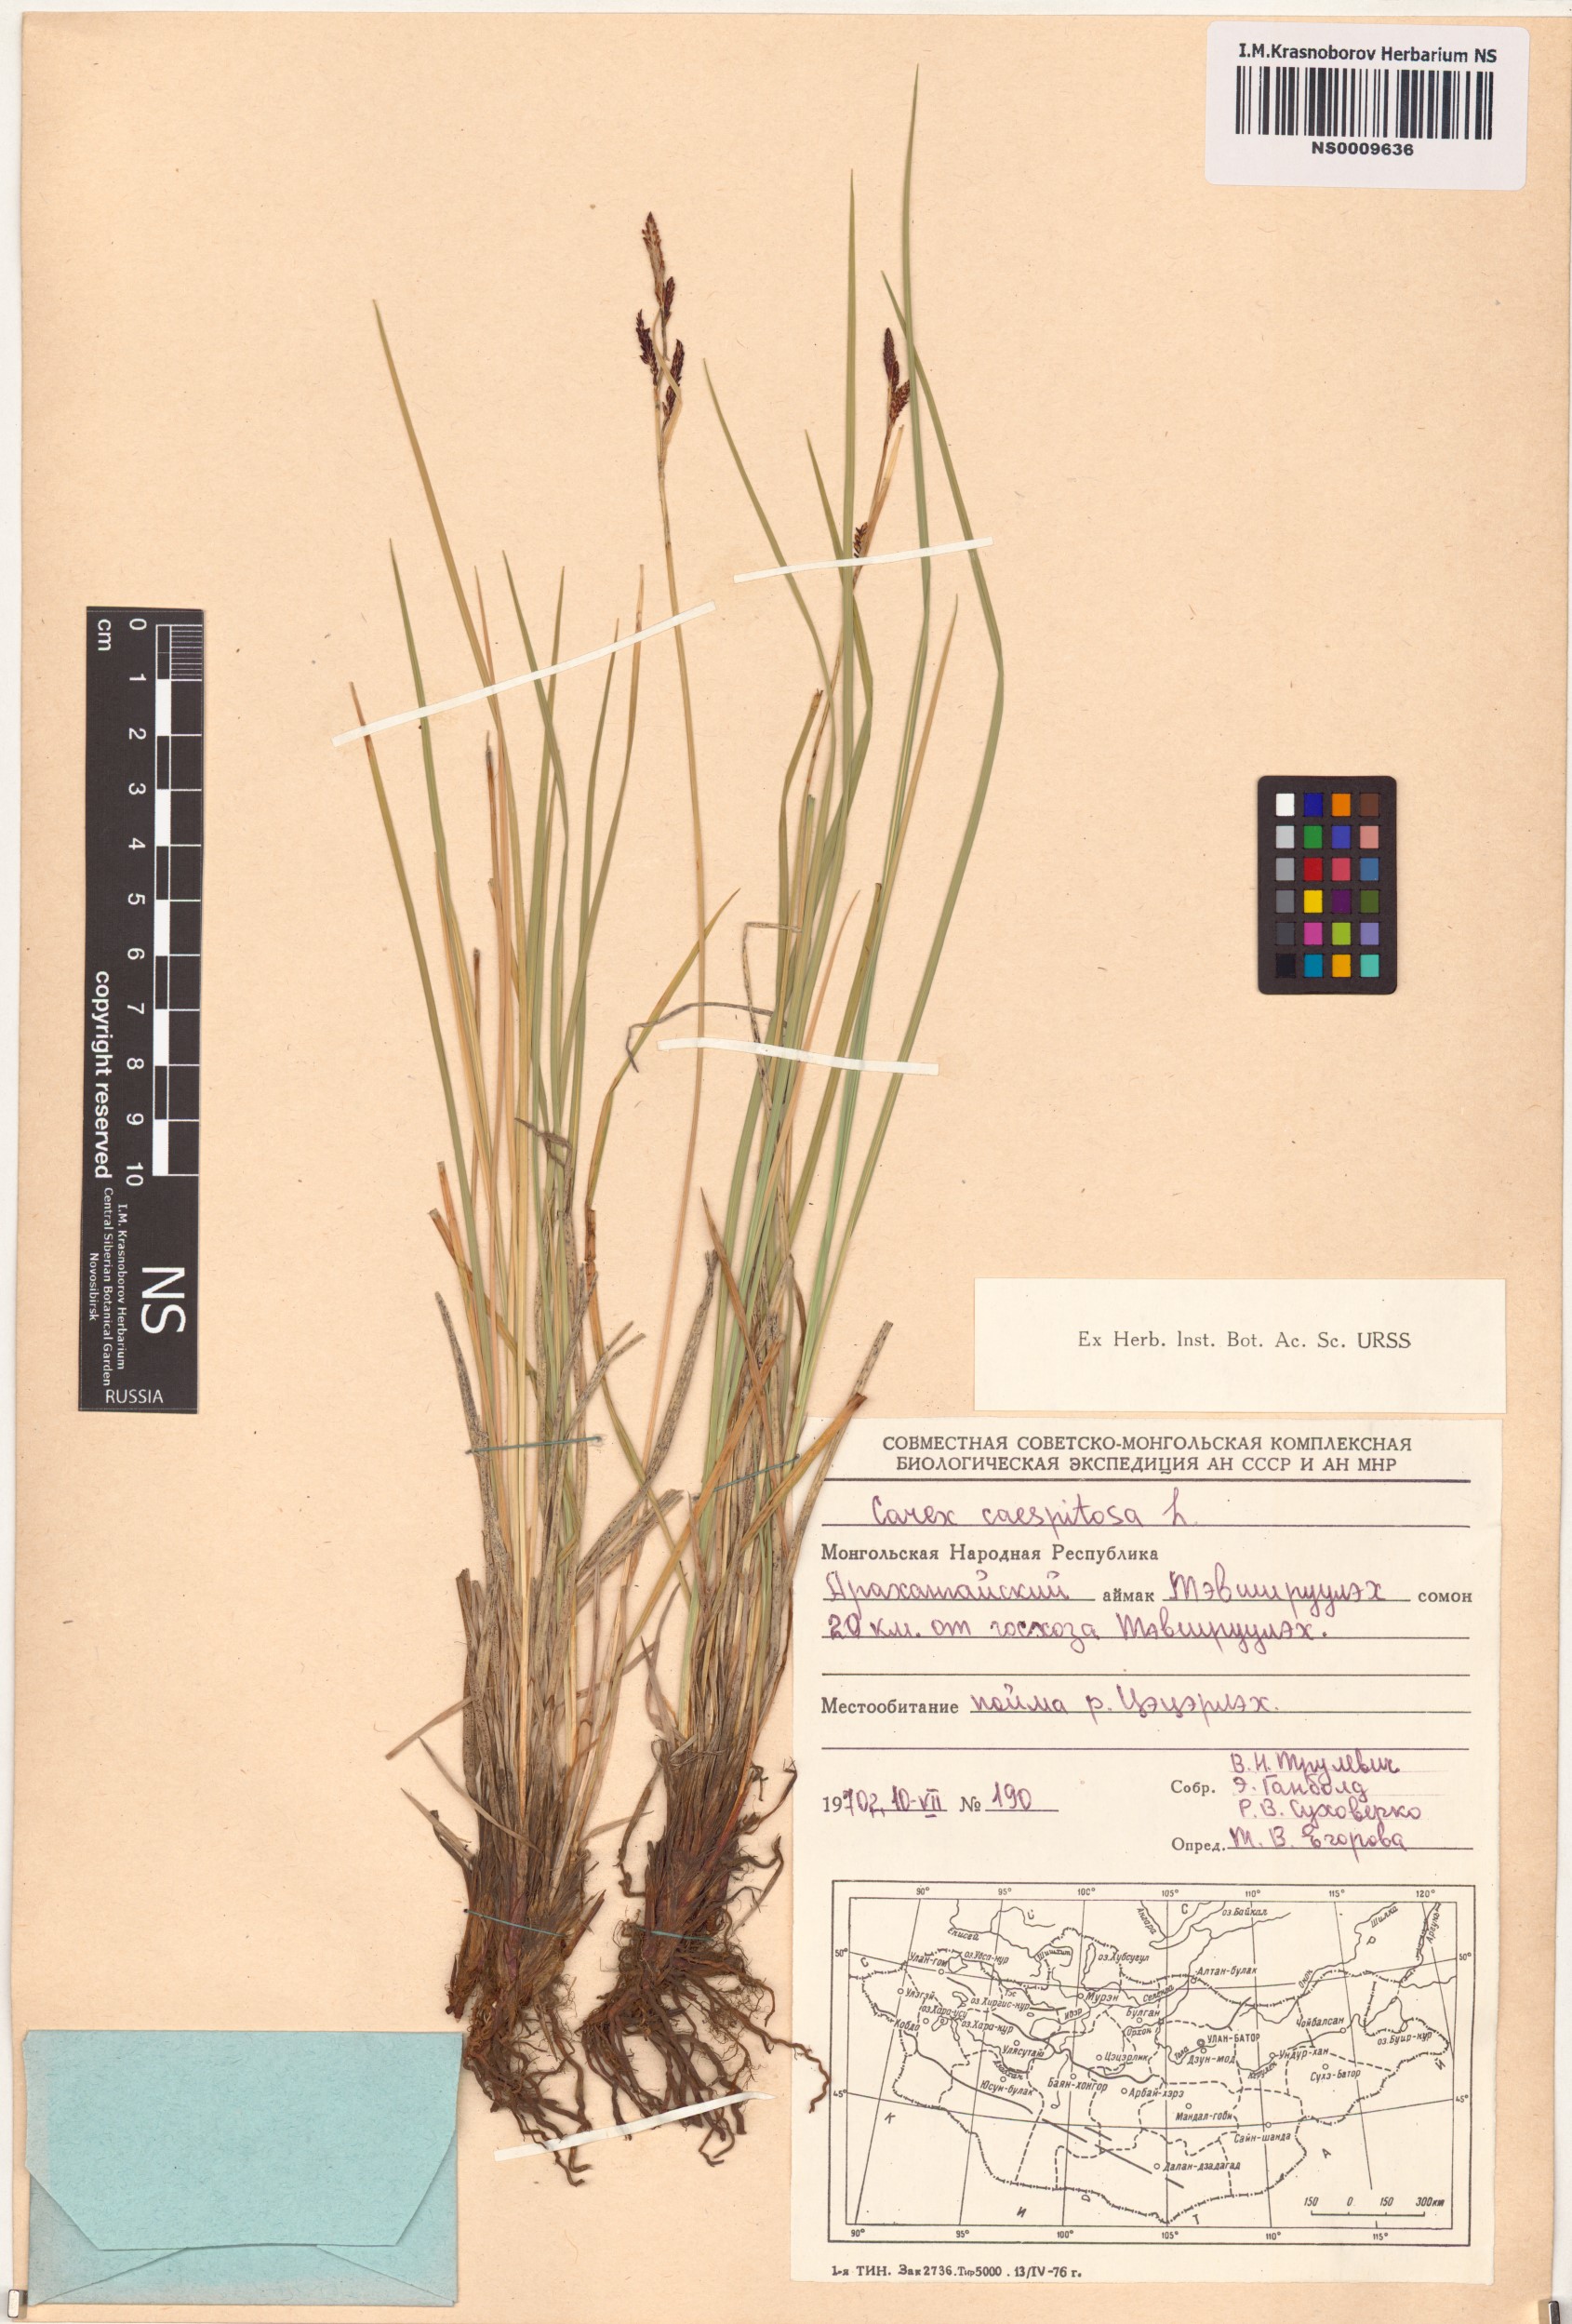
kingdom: Plantae
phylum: Tracheophyta
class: Liliopsida
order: Poales
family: Cyperaceae
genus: Carex
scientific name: Carex cespitosa
